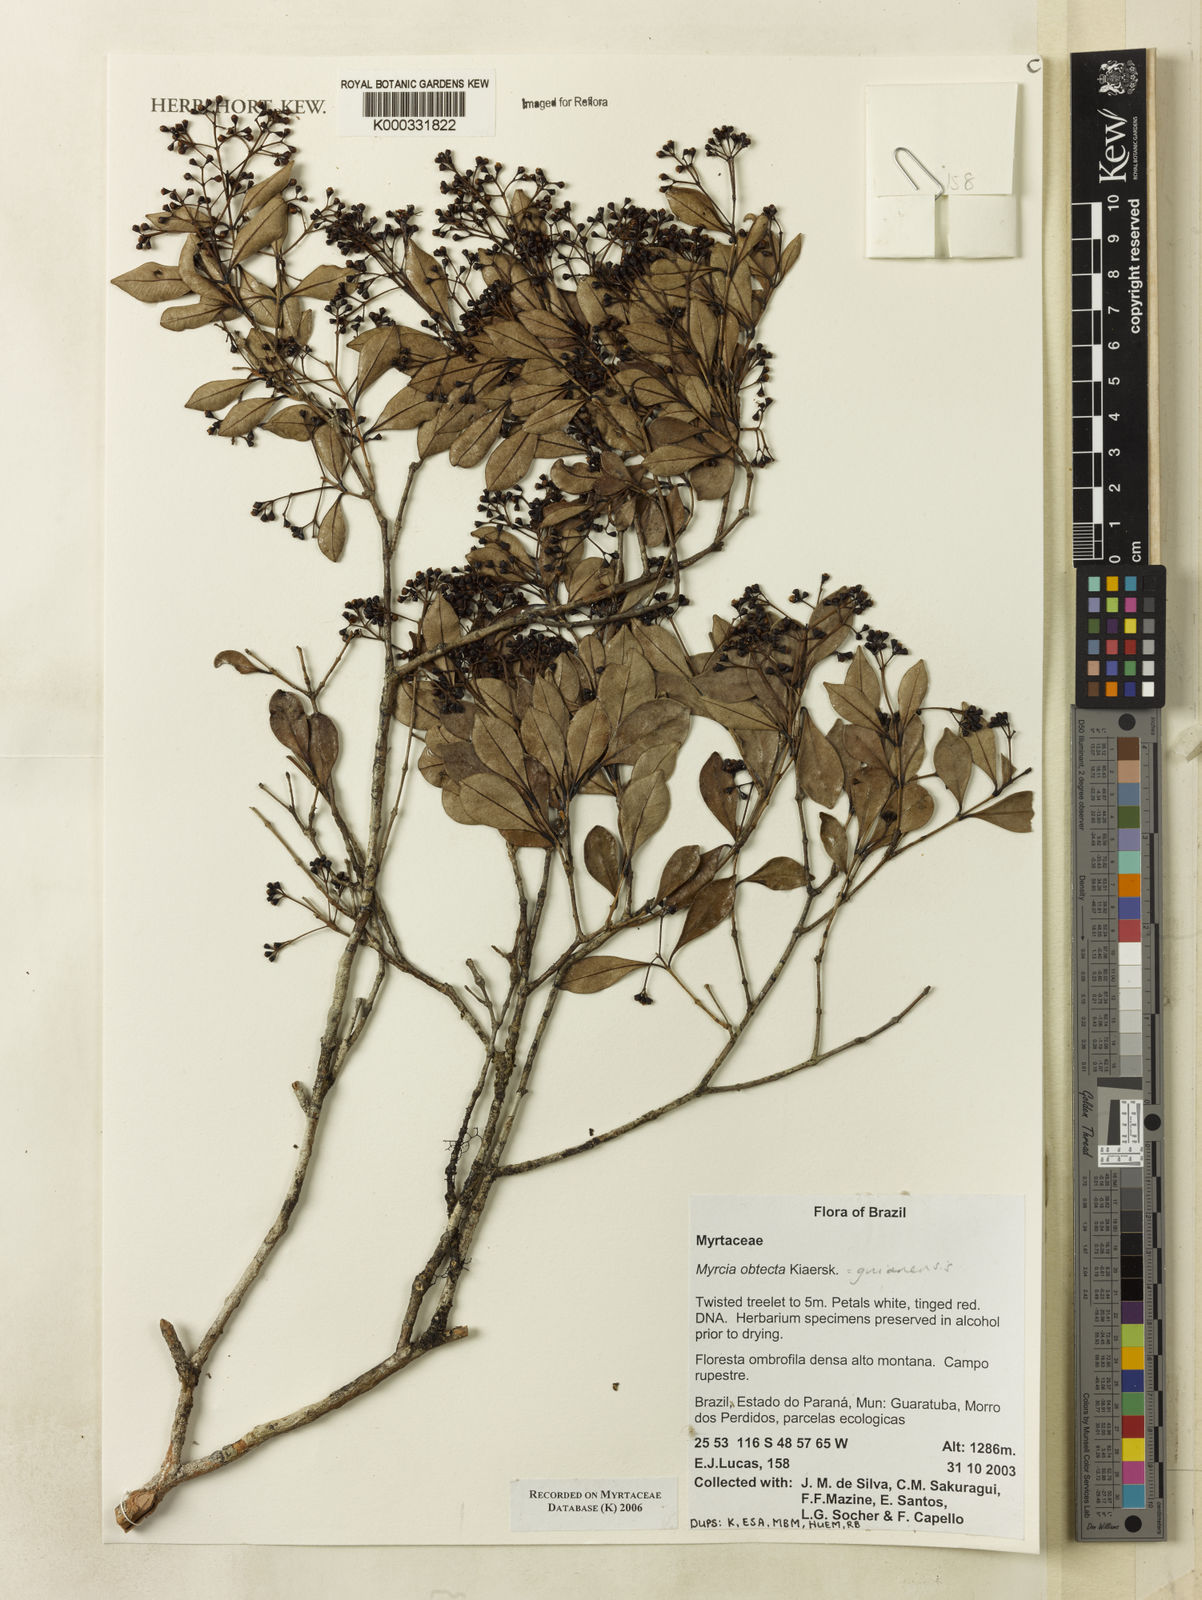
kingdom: Plantae
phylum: Tracheophyta
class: Magnoliopsida
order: Myrtales
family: Myrtaceae
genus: Myrcia
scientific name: Myrcia guianensis
